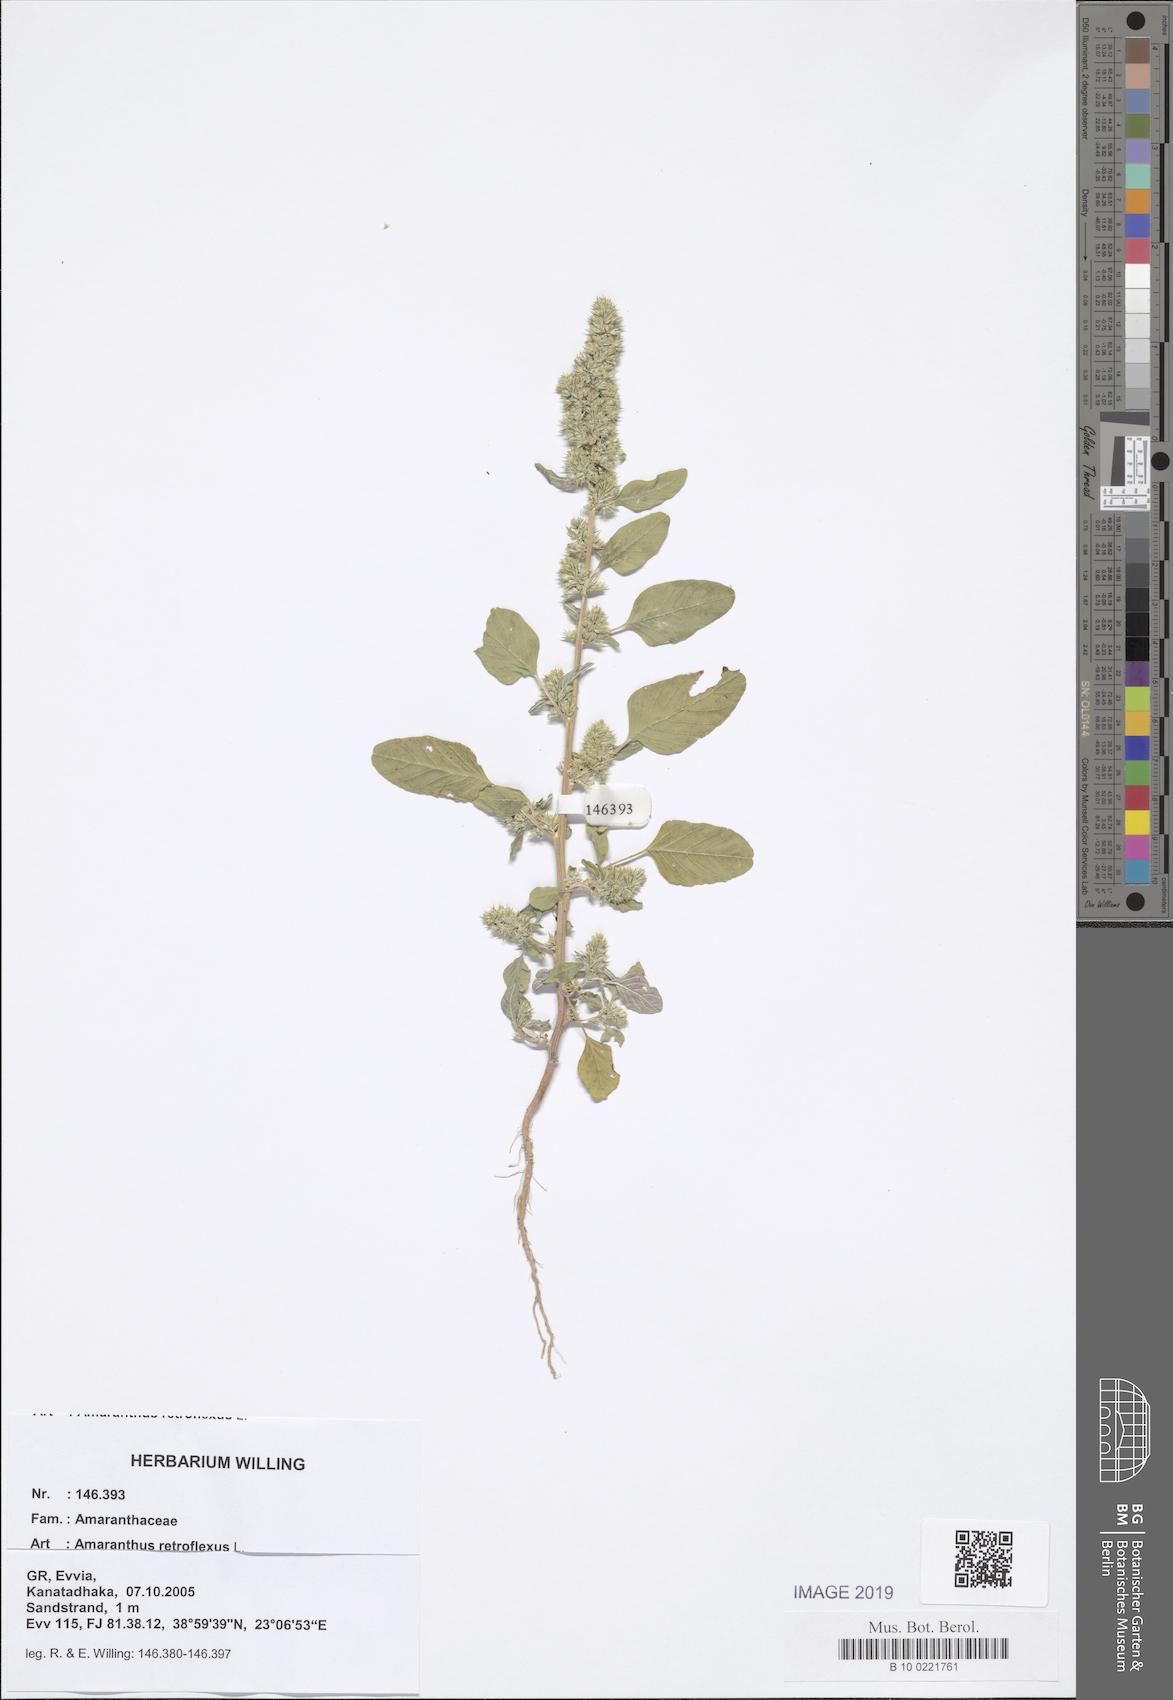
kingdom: Plantae
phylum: Tracheophyta
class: Magnoliopsida
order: Caryophyllales
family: Amaranthaceae
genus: Amaranthus
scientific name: Amaranthus retroflexus
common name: Redroot amaranth
